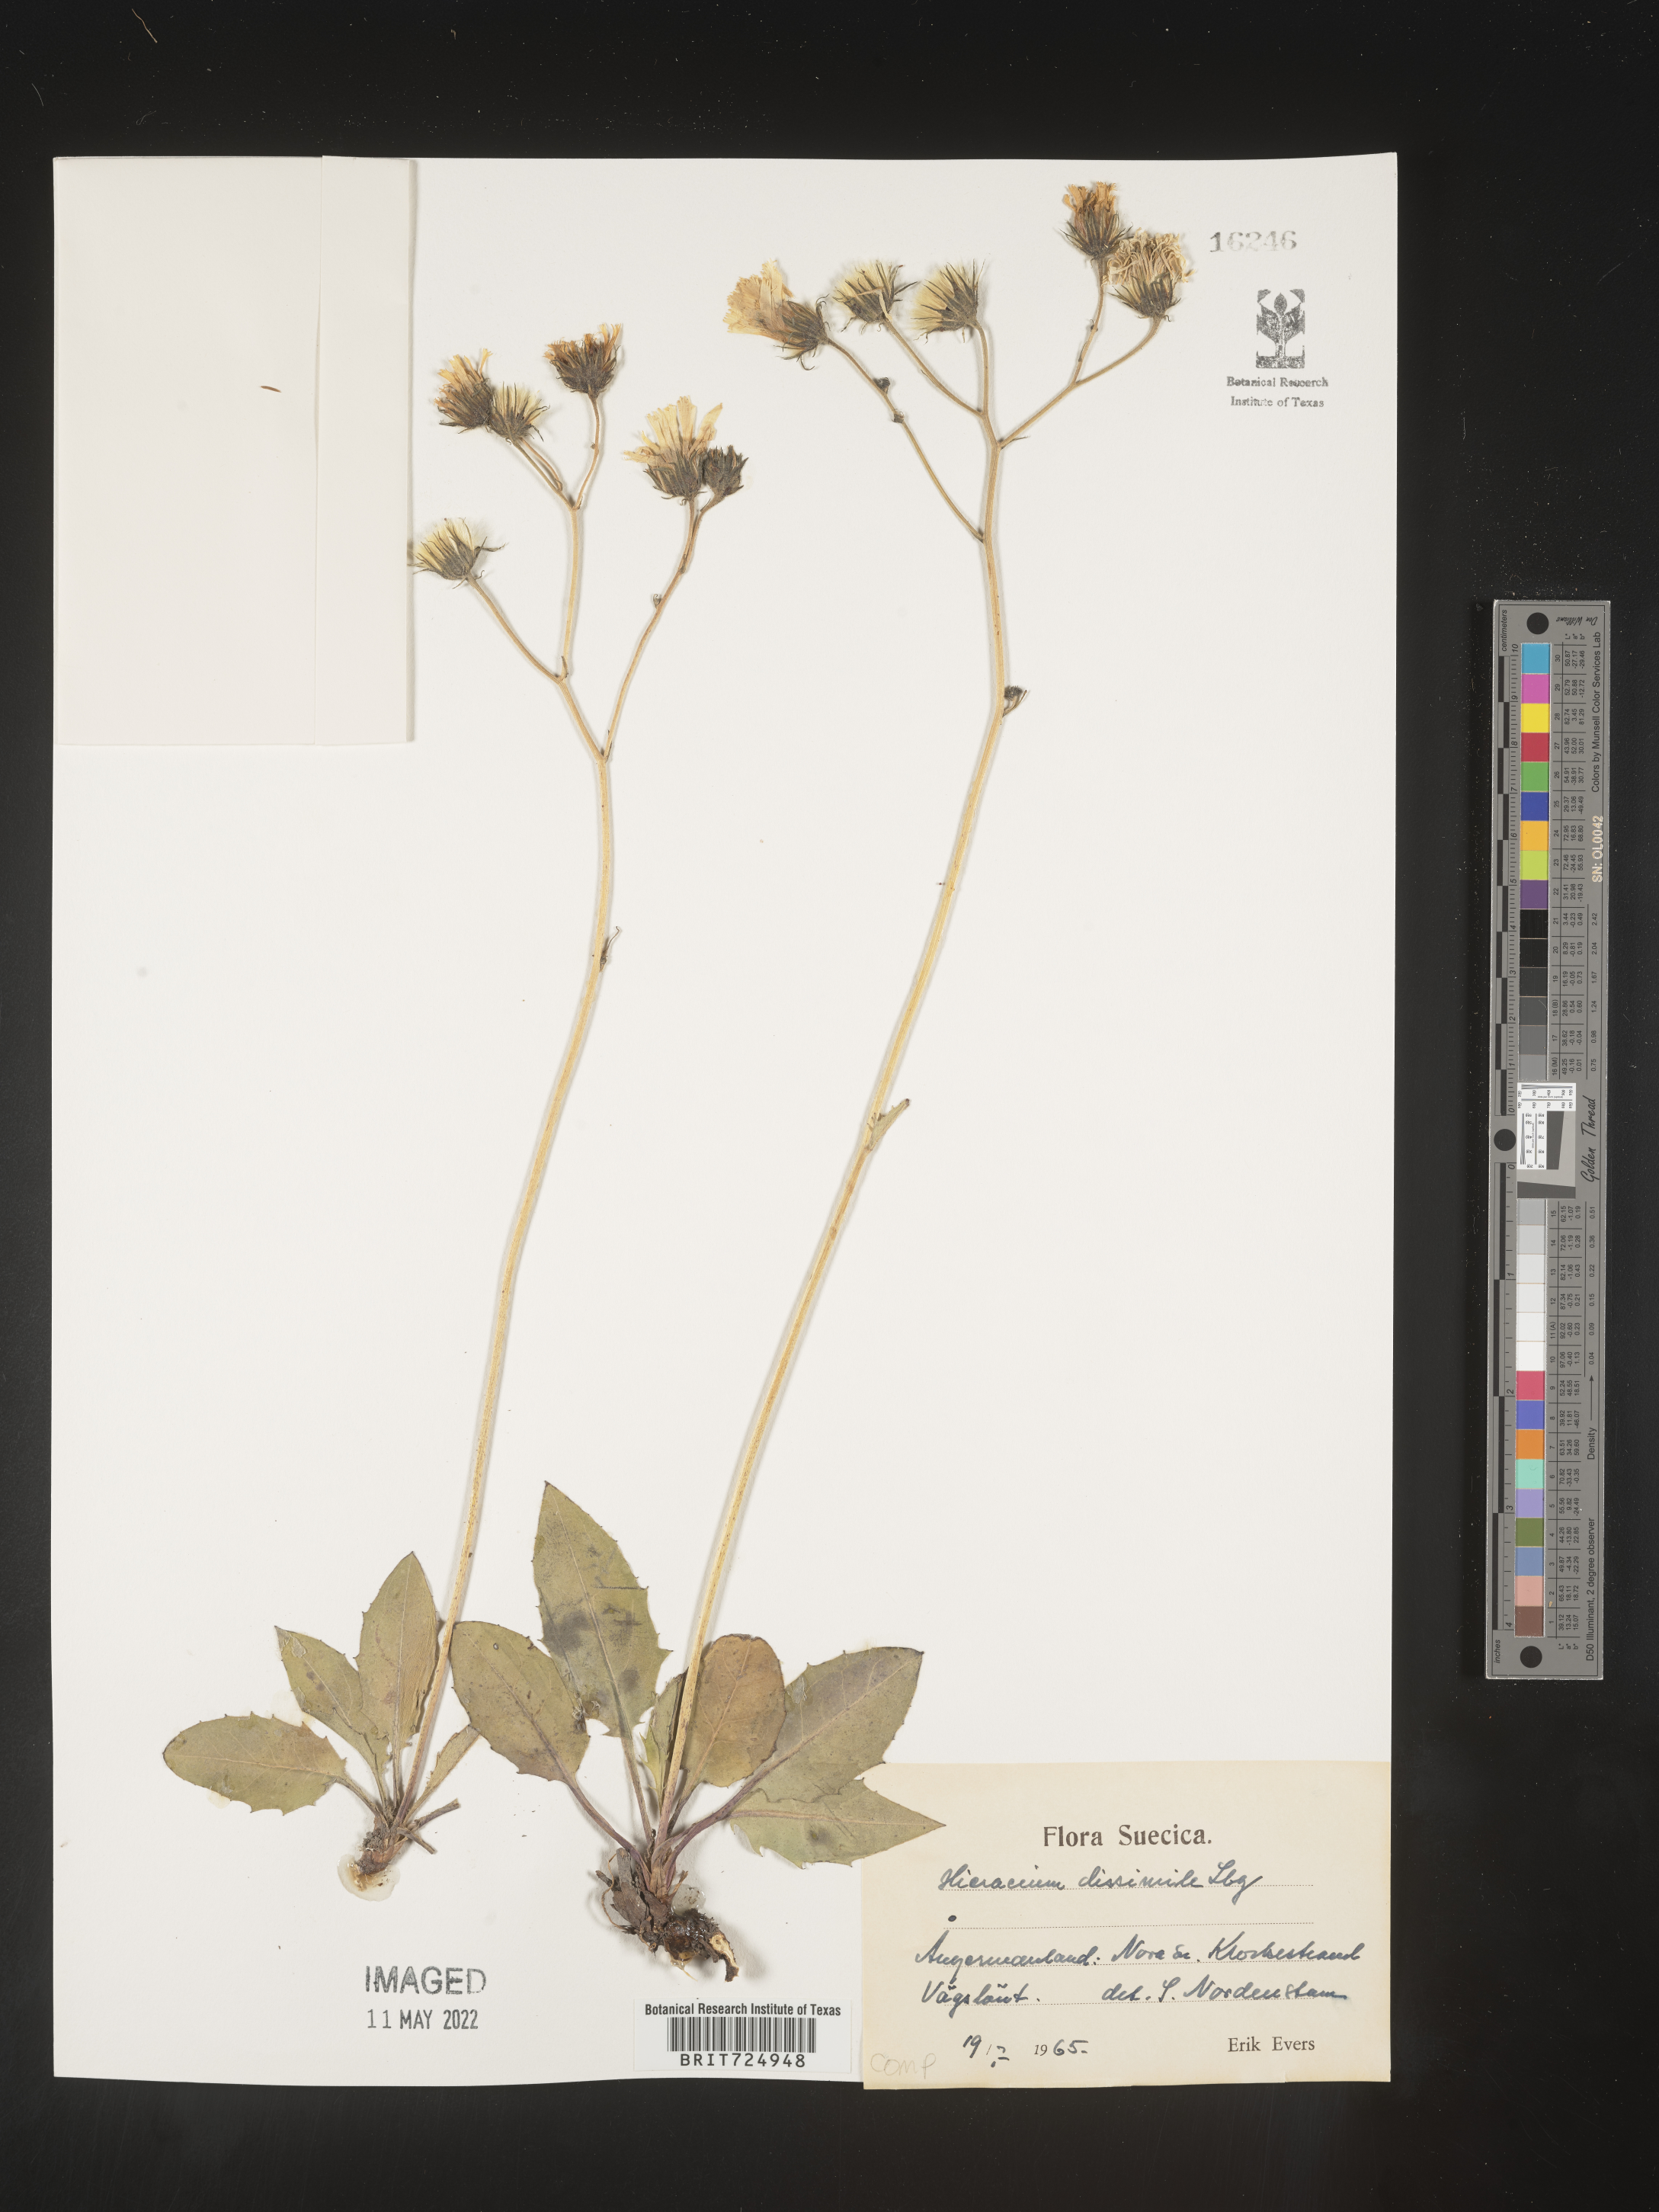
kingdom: Plantae
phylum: Tracheophyta
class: Magnoliopsida
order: Asterales
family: Asteraceae
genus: Hieracium
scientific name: Hieracium
